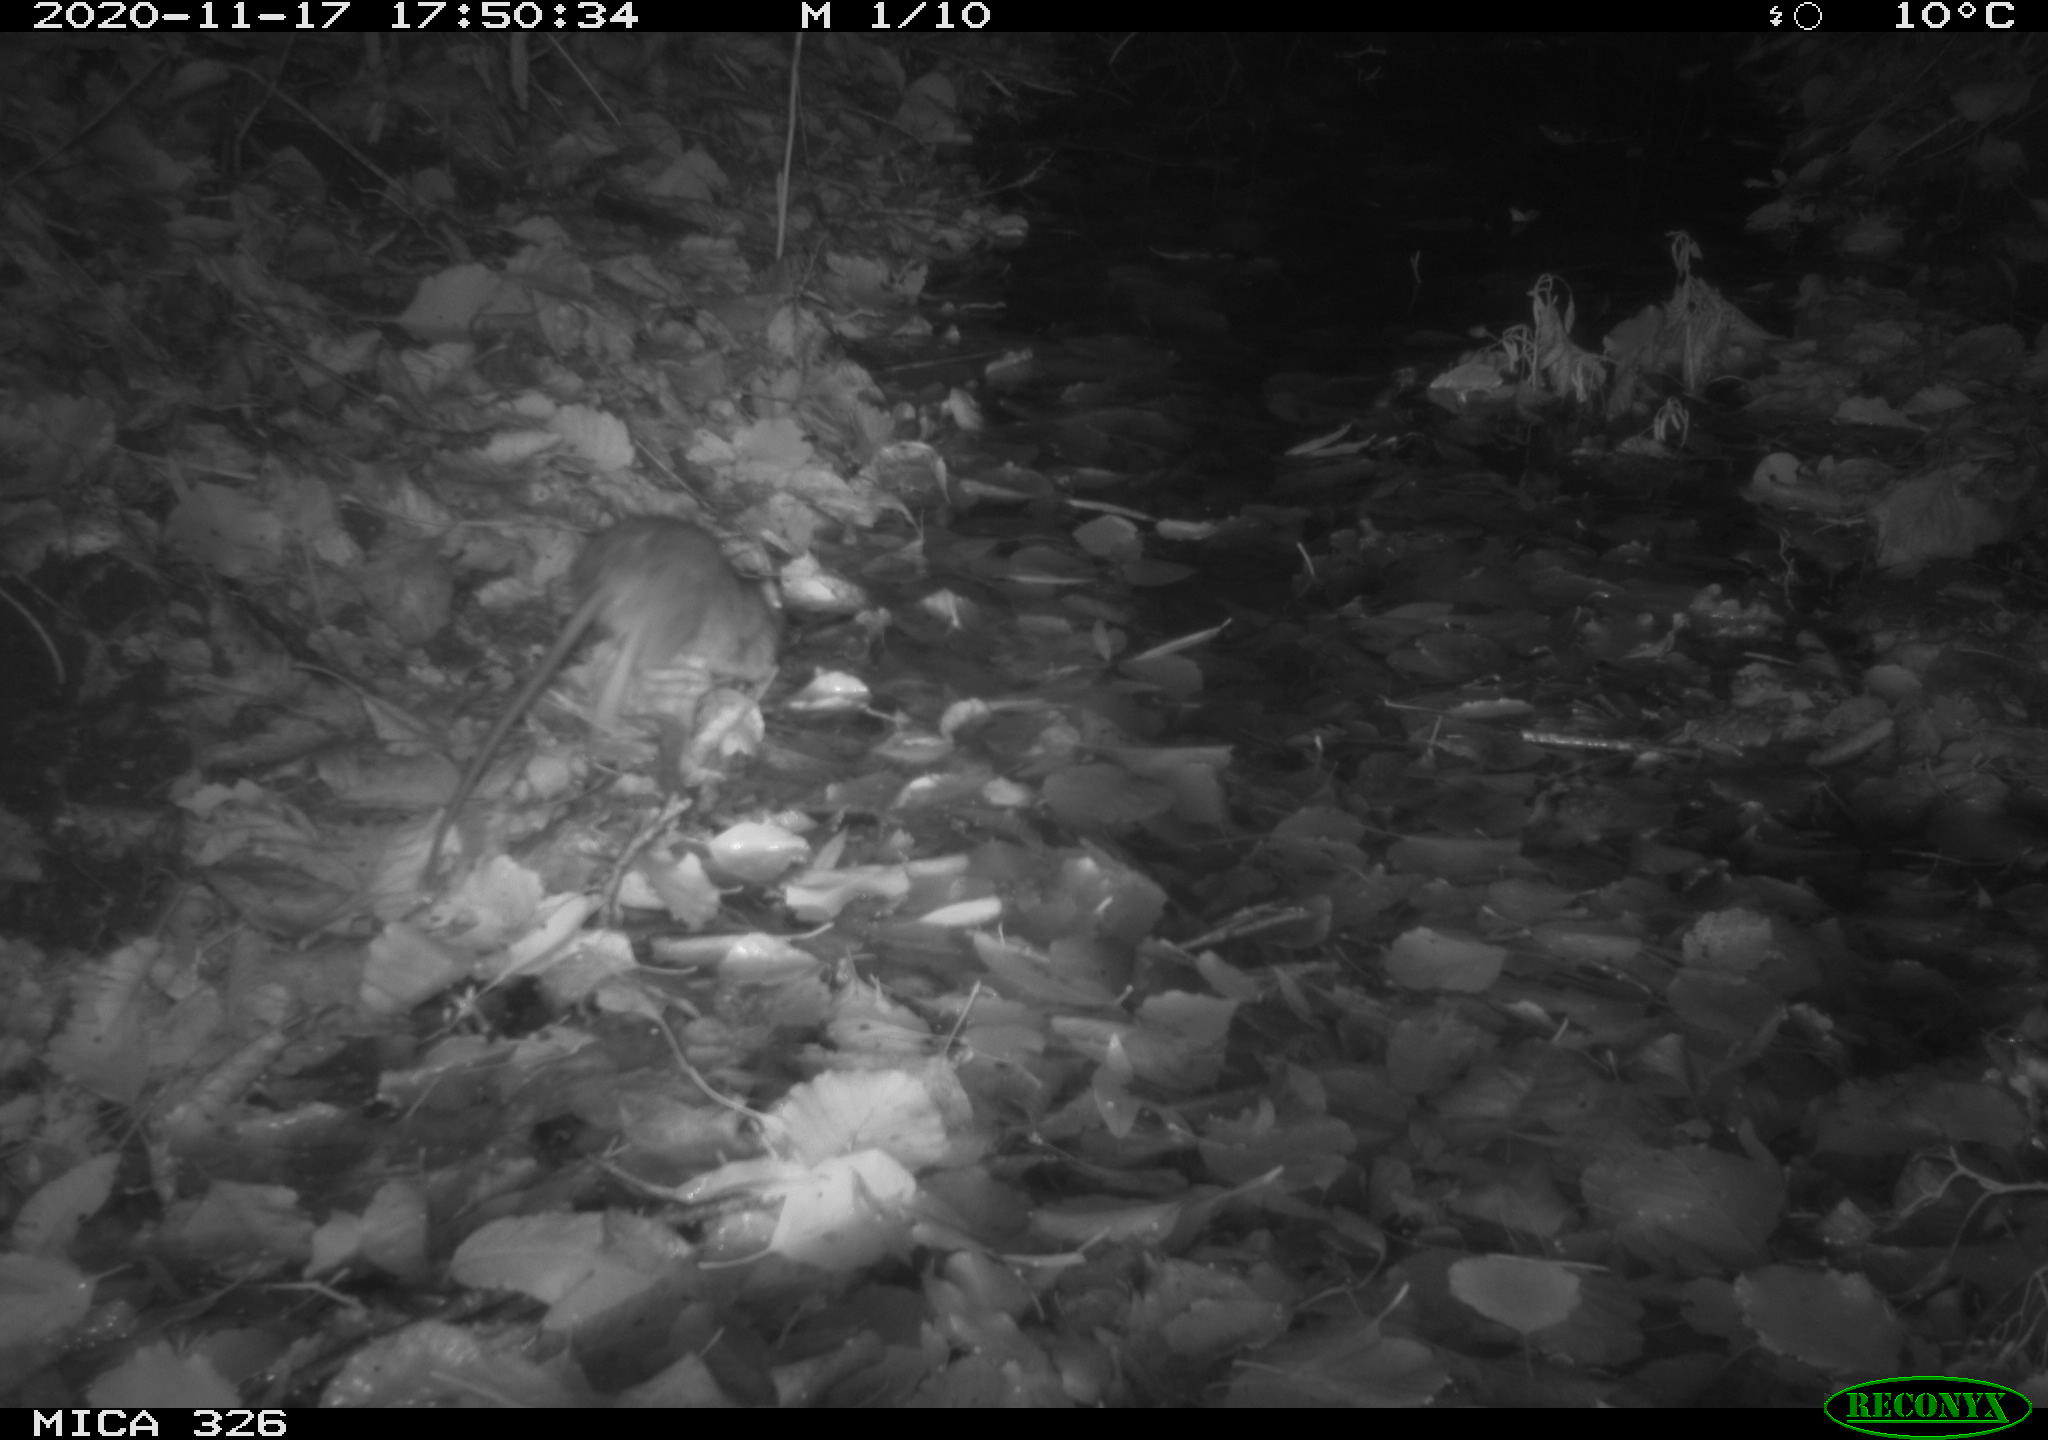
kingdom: Animalia
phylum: Chordata
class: Mammalia
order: Rodentia
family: Muridae
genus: Rattus
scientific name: Rattus norvegicus
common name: Brown rat
